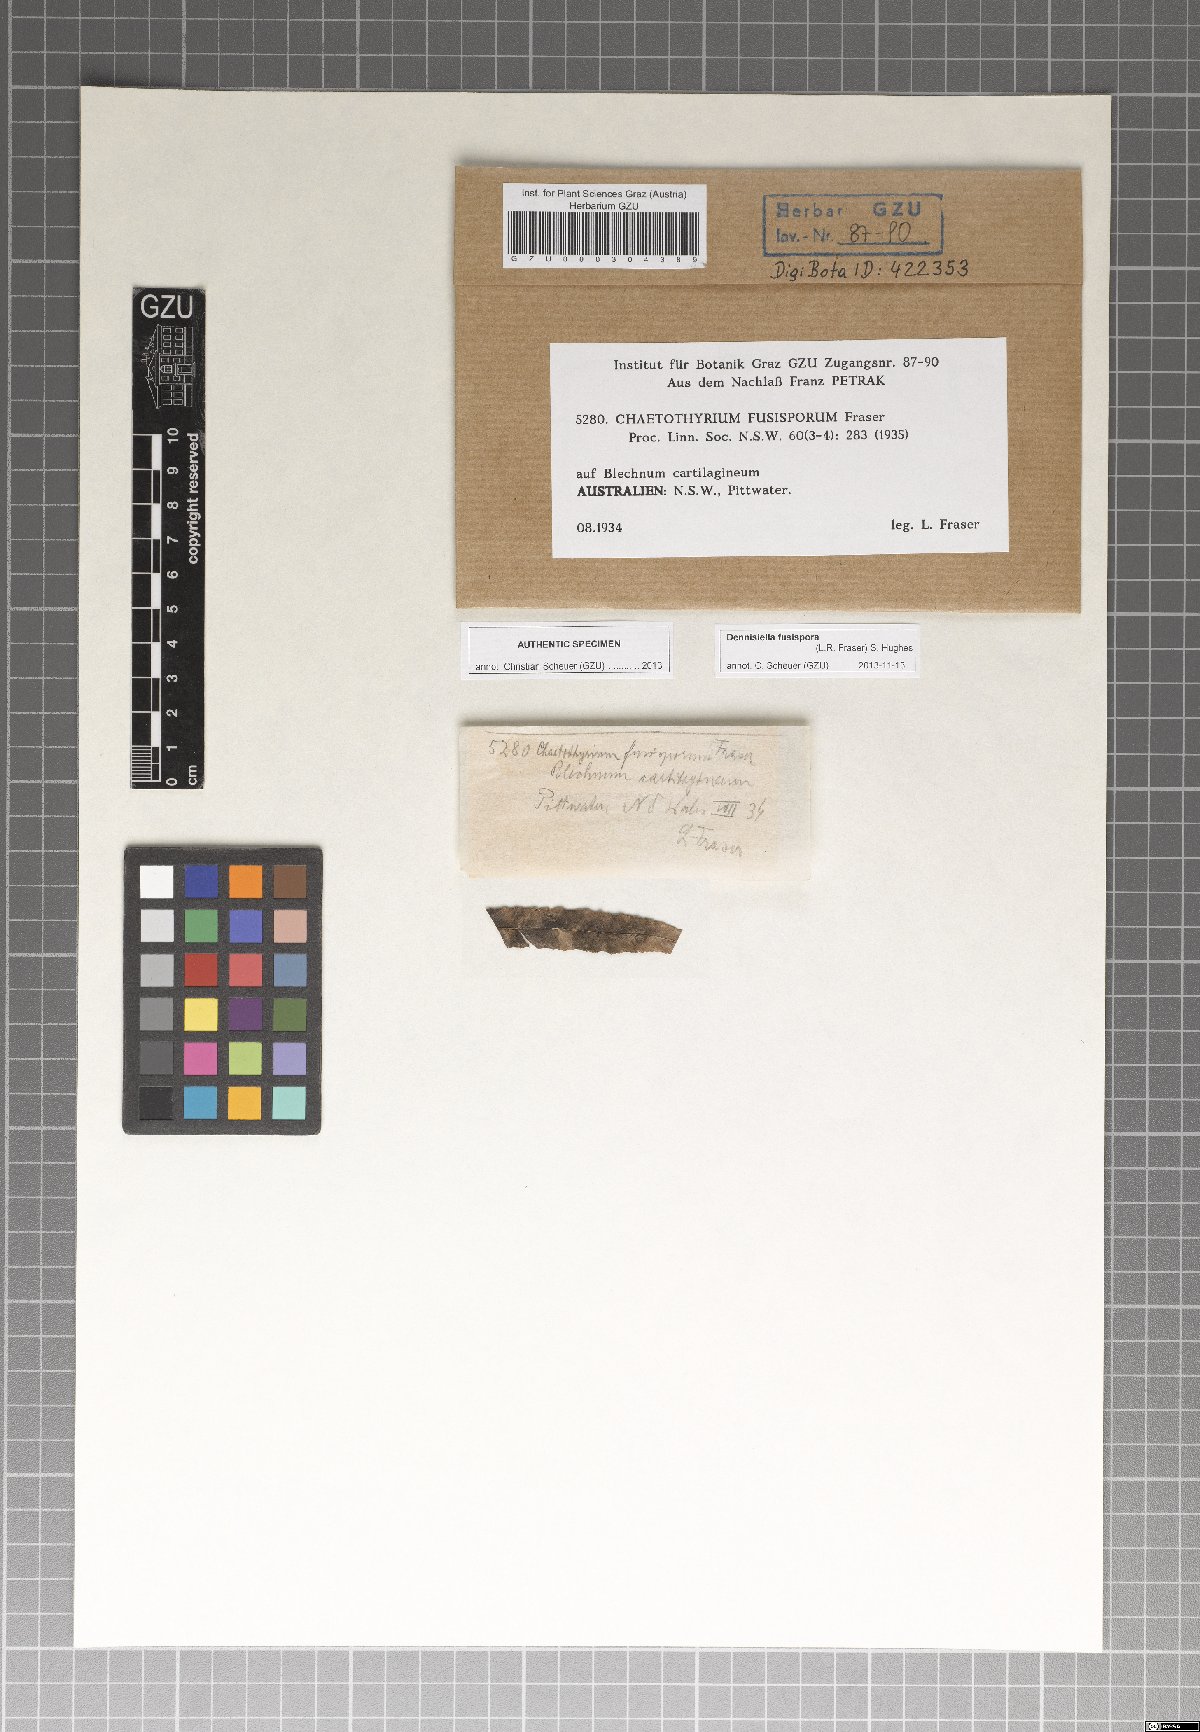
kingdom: Fungi
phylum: Ascomycota
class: Eurotiomycetes
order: Chaetothyriales
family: Coccodiniaceae
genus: Dennisiella
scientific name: Dennisiella fusispora
